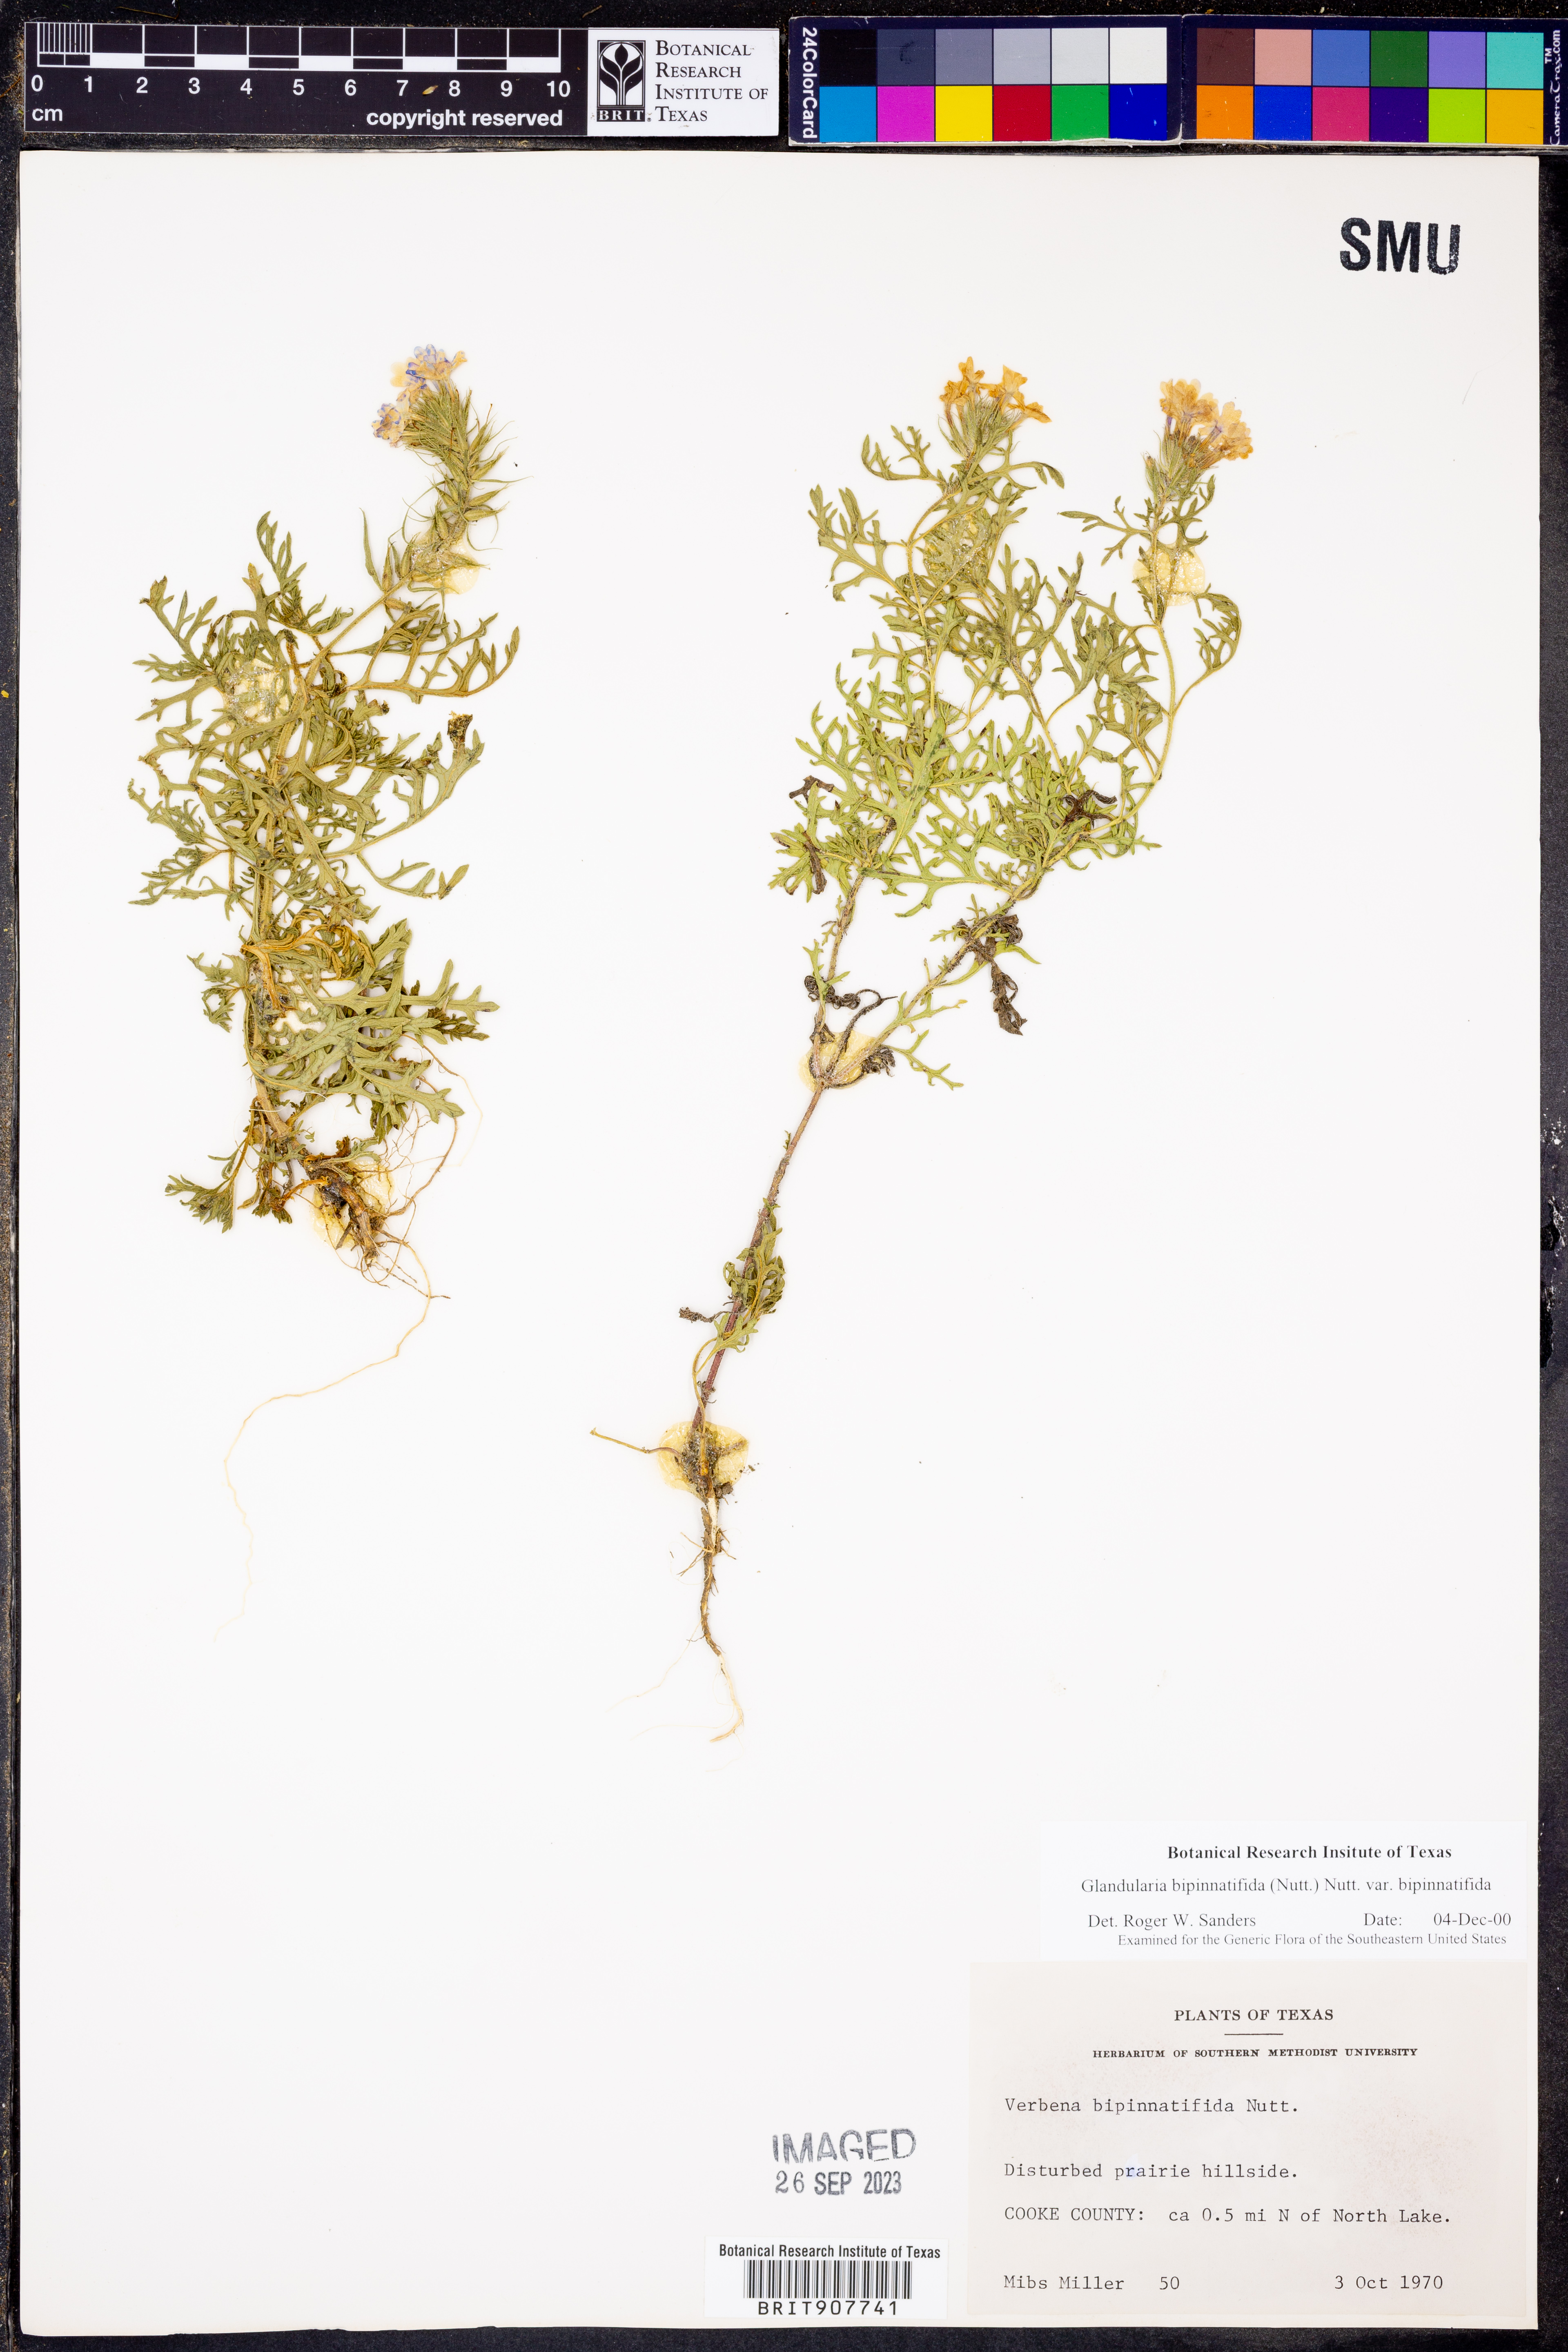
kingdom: Plantae
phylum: Tracheophyta
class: Magnoliopsida
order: Lamiales
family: Verbenaceae
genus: Verbena
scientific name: Verbena bipinnatifida
